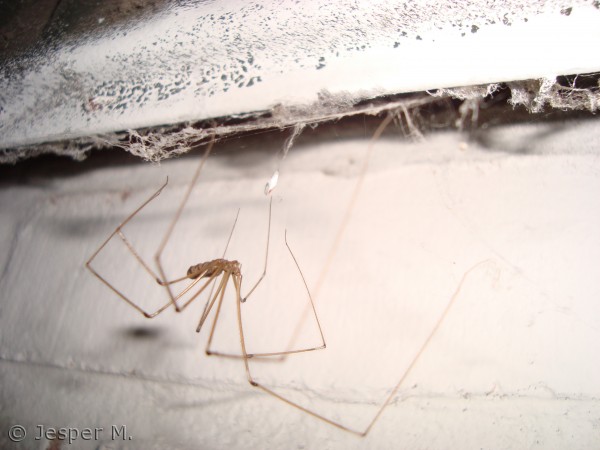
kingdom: Animalia
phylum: Arthropoda
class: Arachnida
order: Araneae
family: Pholcidae
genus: Pholcus
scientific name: Pholcus phalangioides
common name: Mejeredderkop
